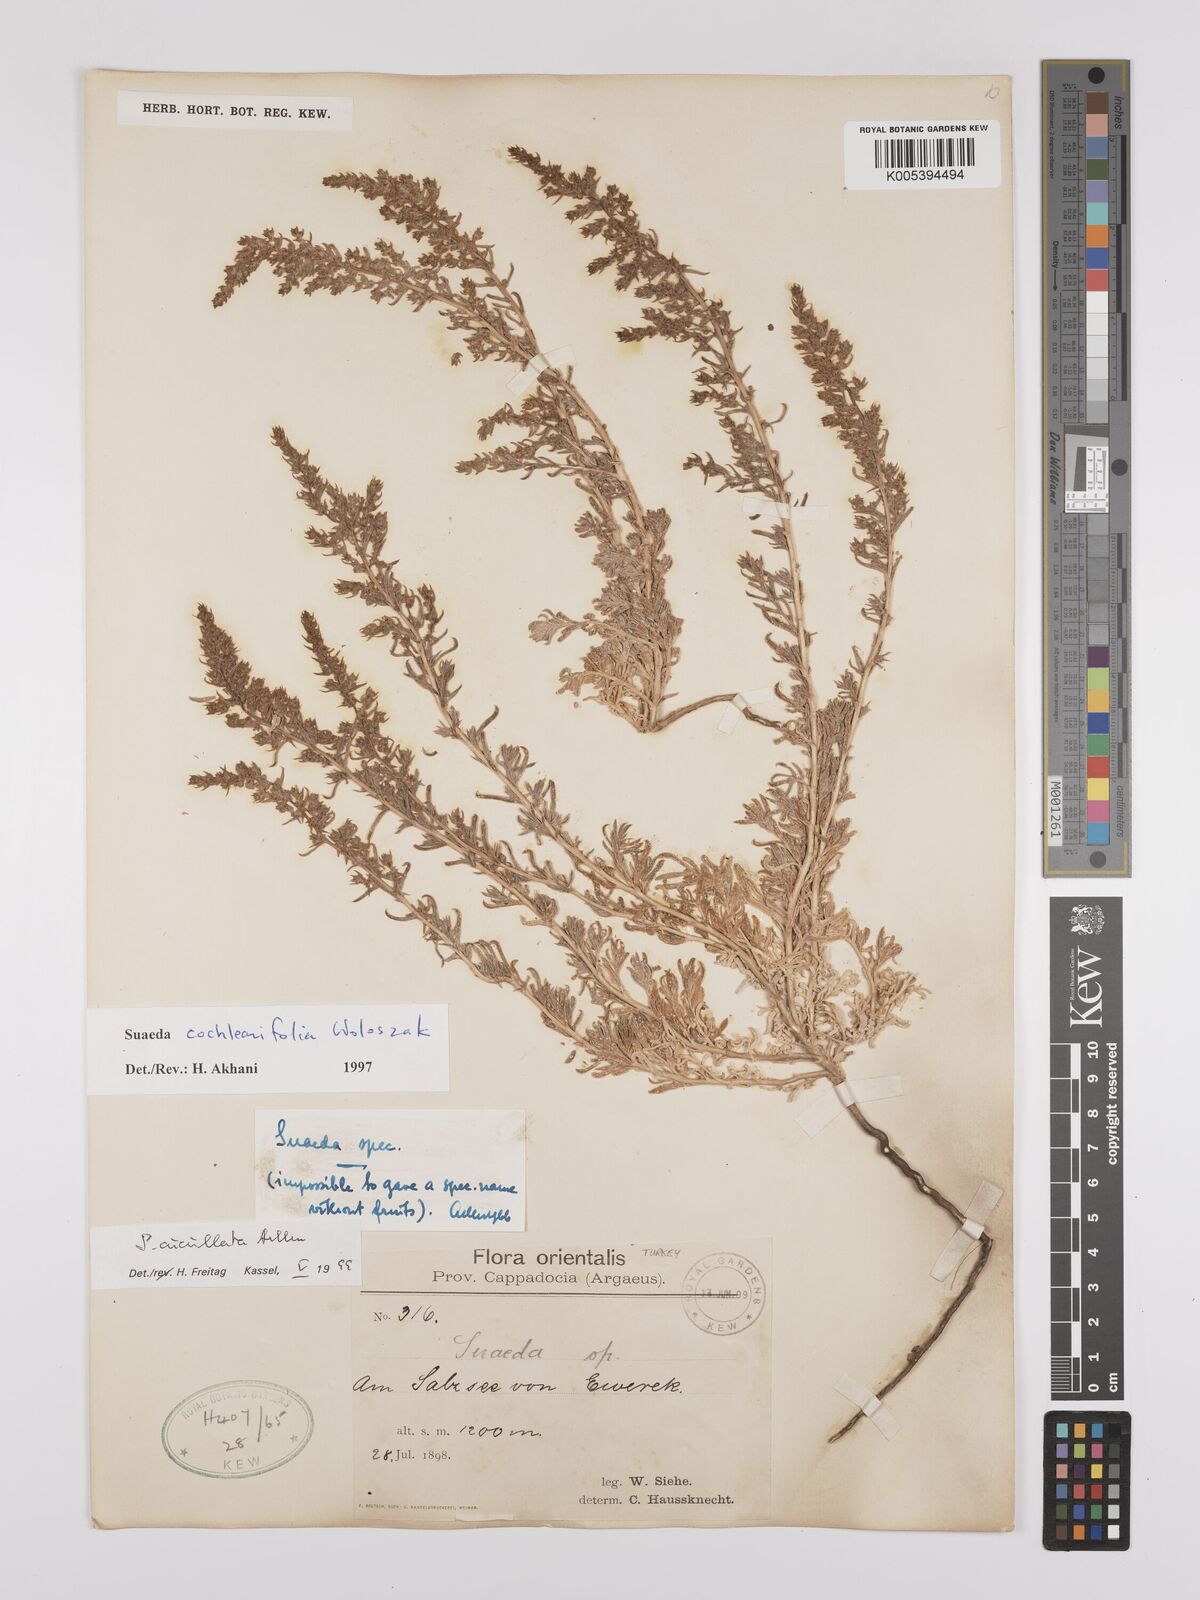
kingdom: Plantae
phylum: Tracheophyta
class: Magnoliopsida
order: Caryophyllales
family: Amaranthaceae
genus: Suaeda
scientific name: Suaeda cucullata
